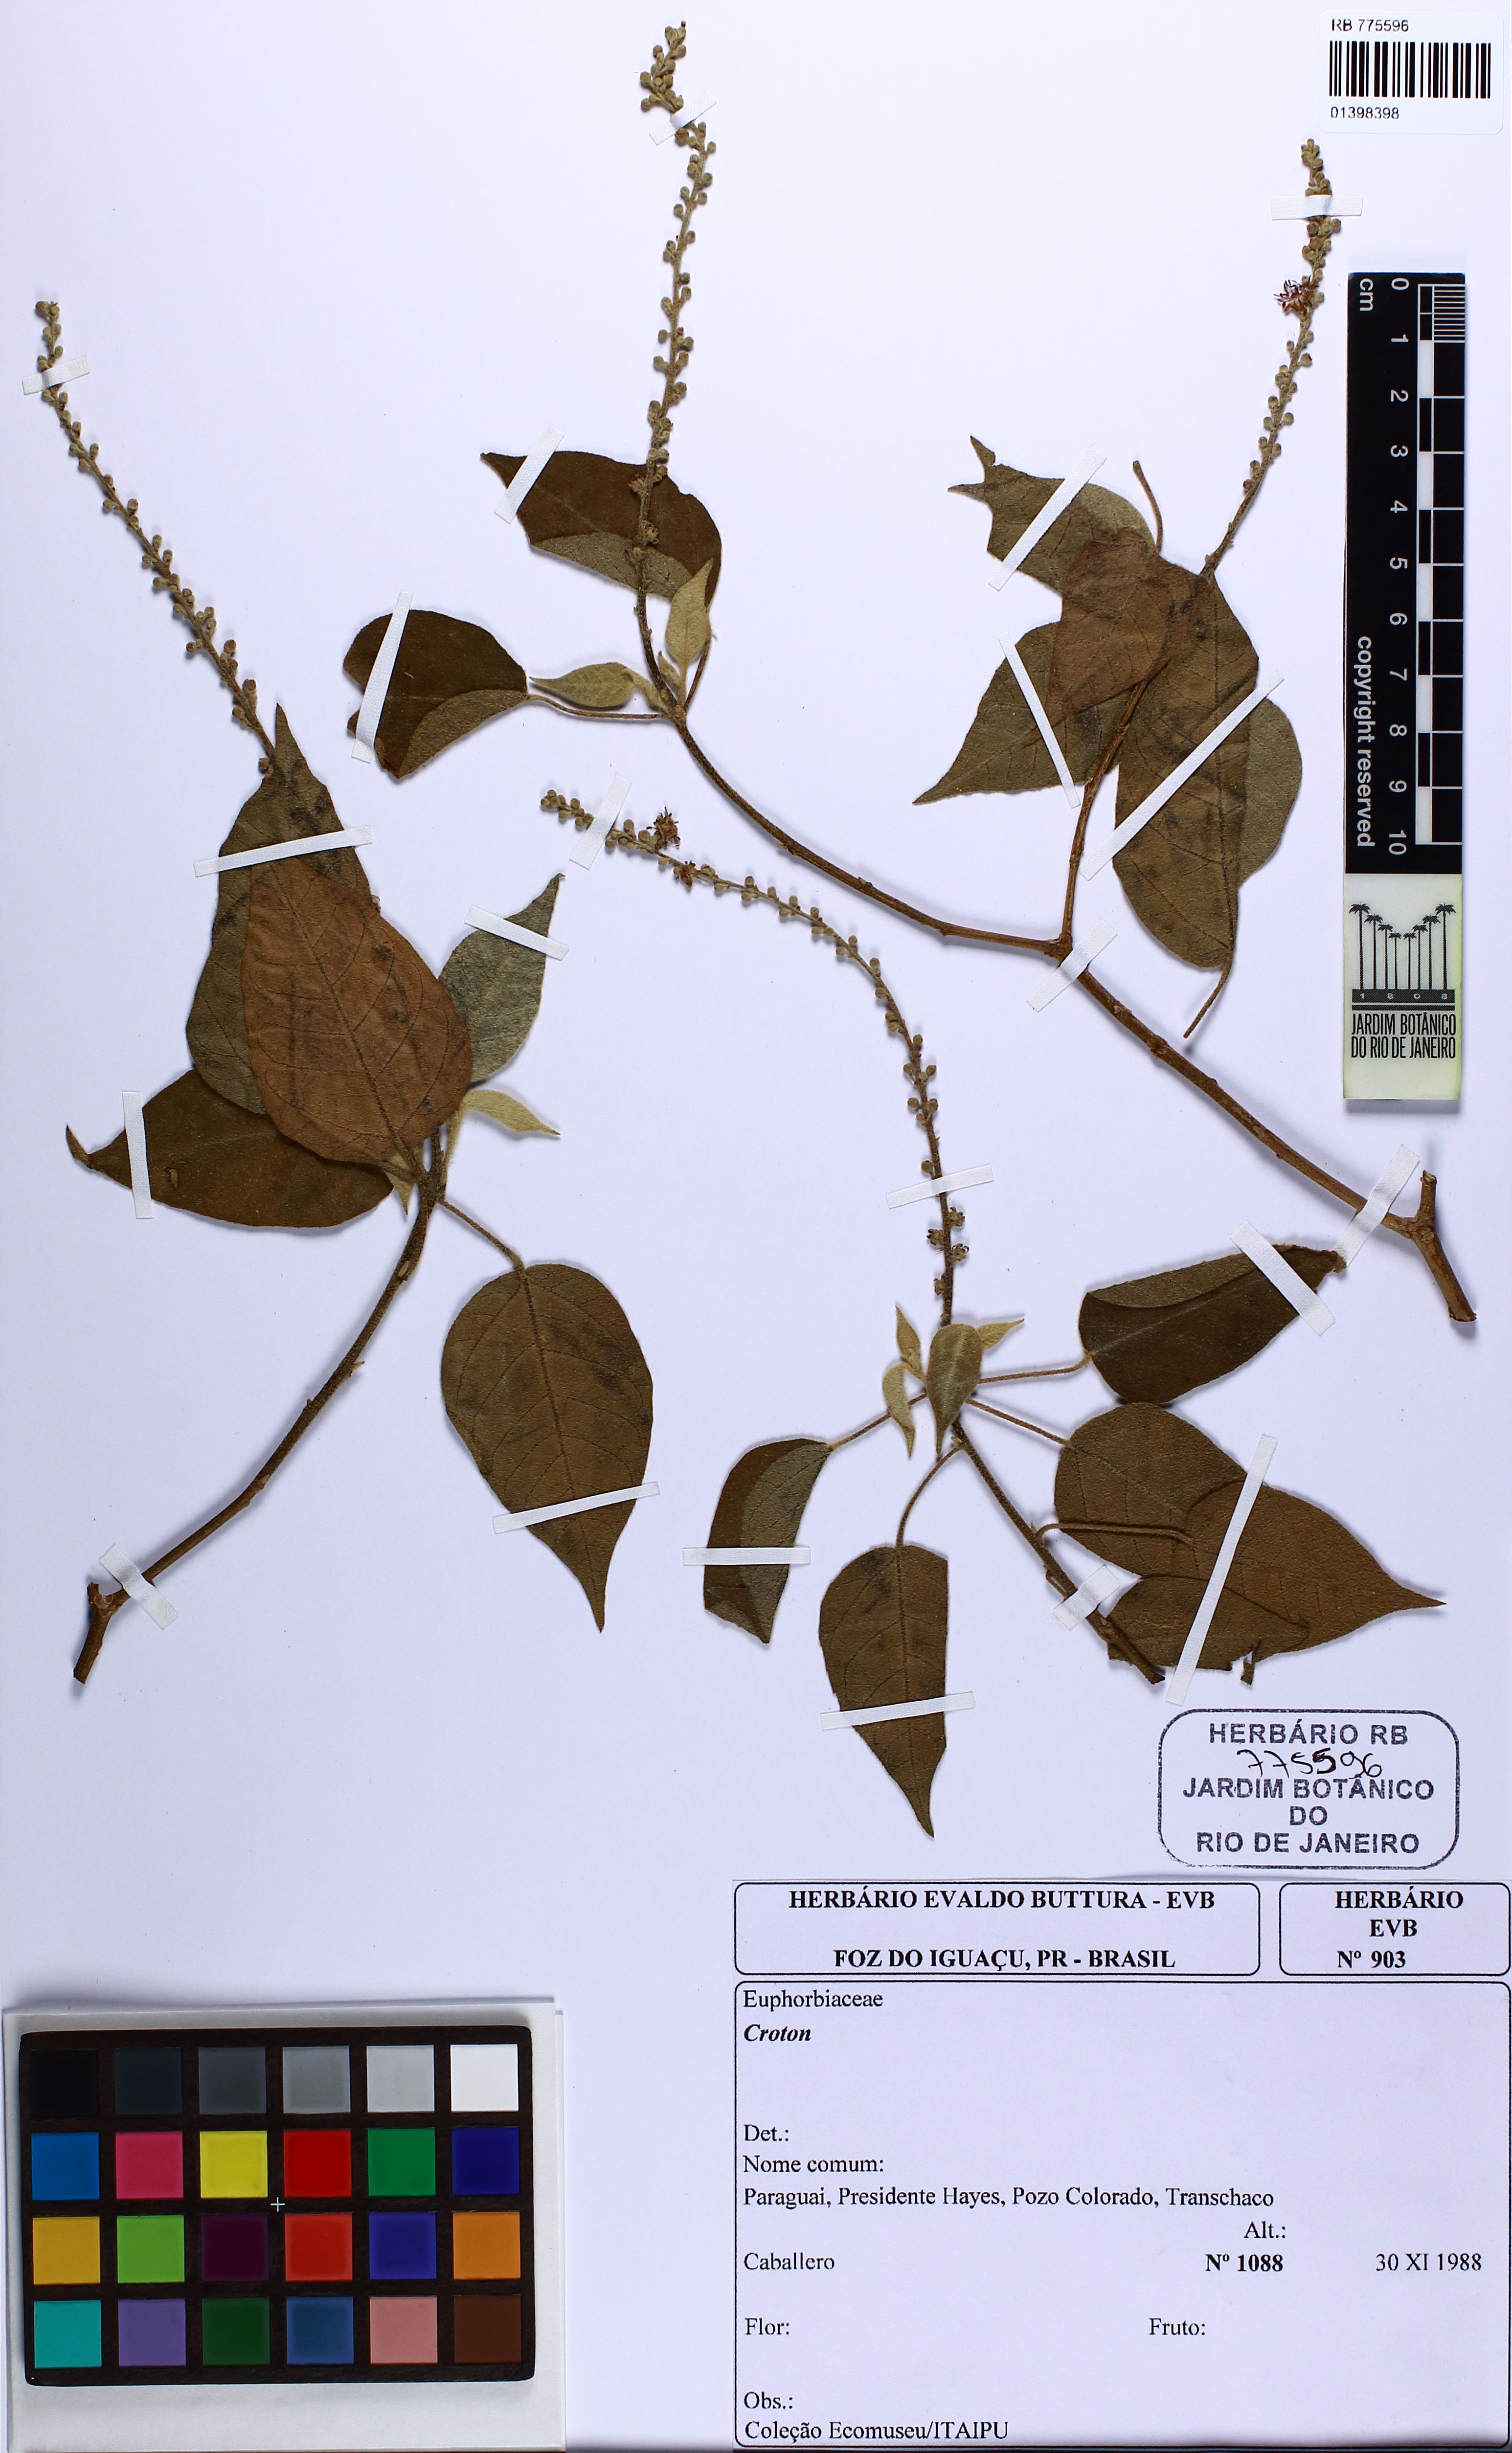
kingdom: Plantae
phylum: Tracheophyta
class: Magnoliopsida
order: Malpighiales
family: Euphorbiaceae
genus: Croton
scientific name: Croton gracilipes
